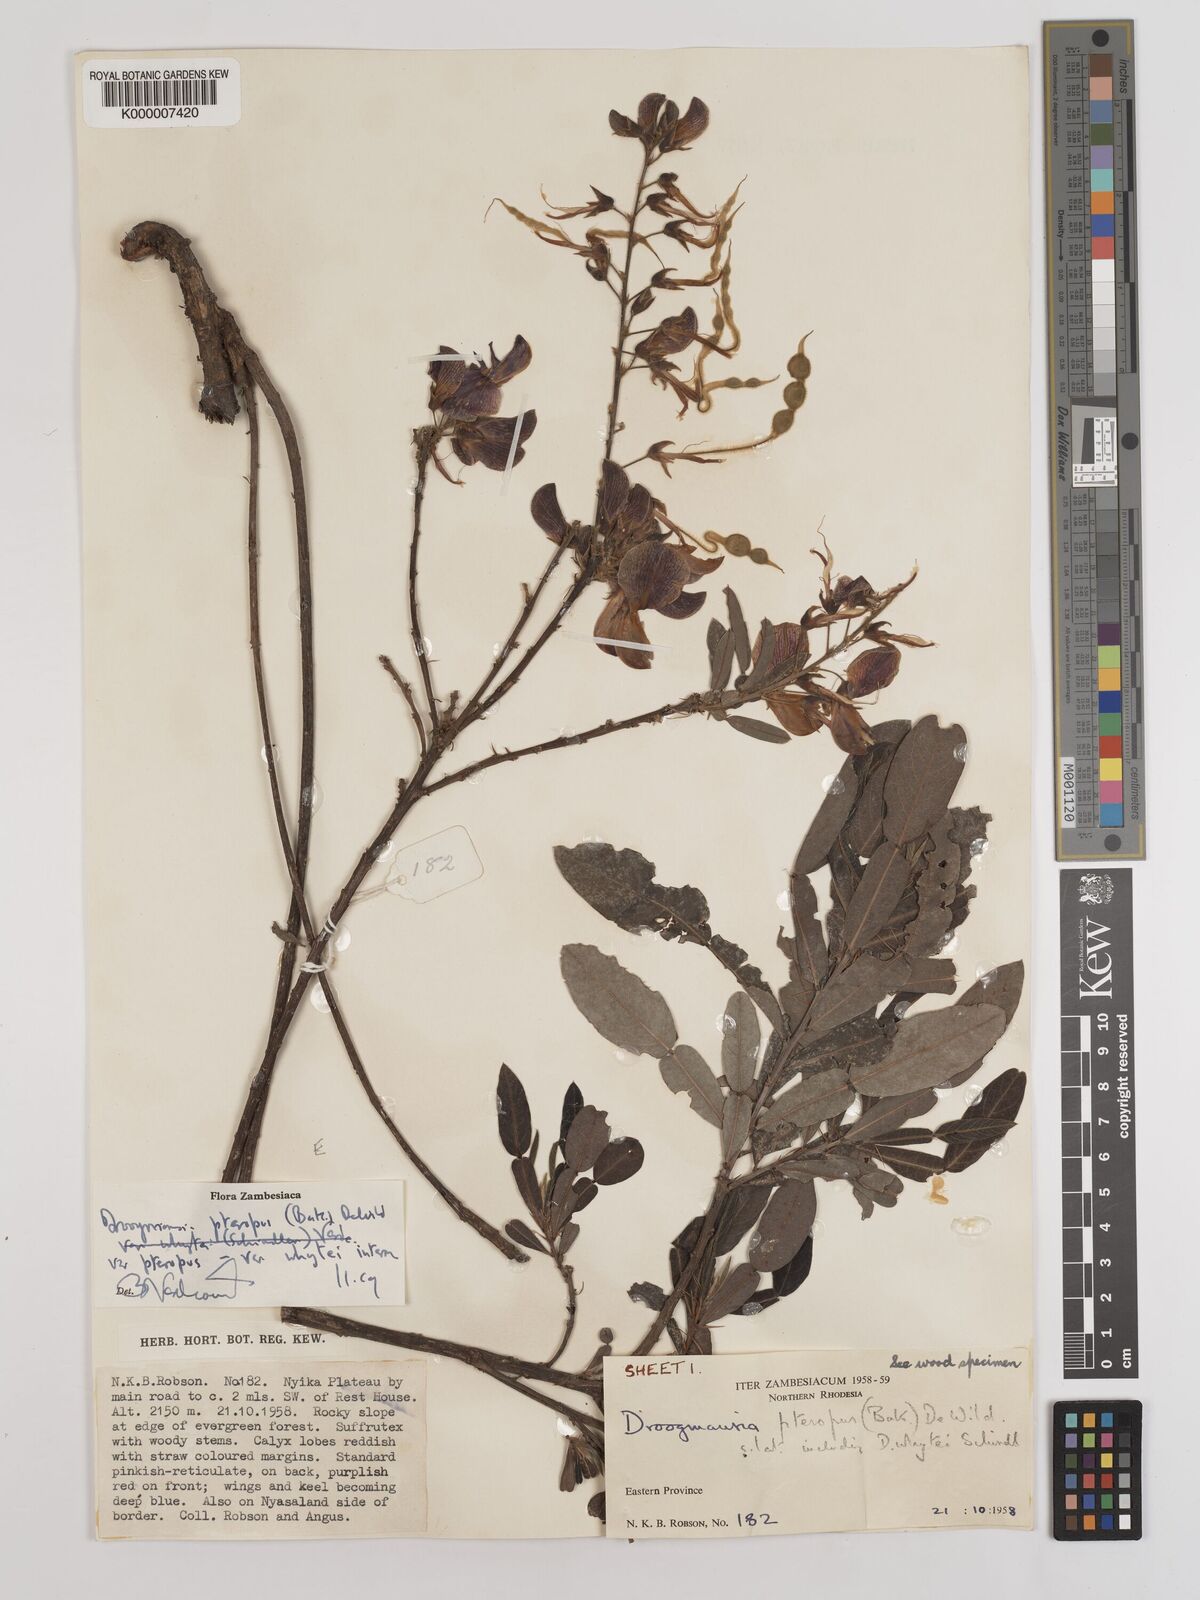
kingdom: Plantae
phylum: Tracheophyta
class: Magnoliopsida
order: Fabales
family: Fabaceae
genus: Droogmansia
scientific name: Droogmansia pteropus
